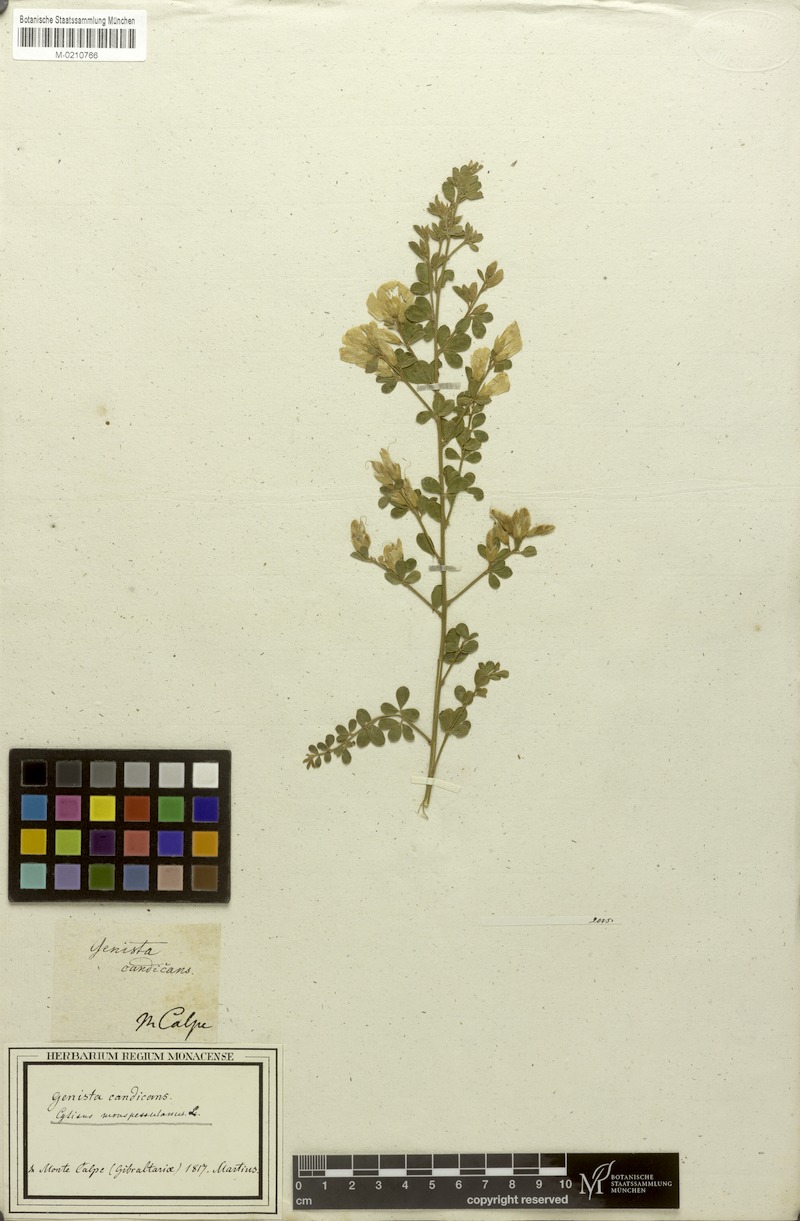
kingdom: Plantae
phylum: Tracheophyta
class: Magnoliopsida
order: Fabales
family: Fabaceae
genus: Genista
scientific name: Genista monspessulana
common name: Montpellier broom
